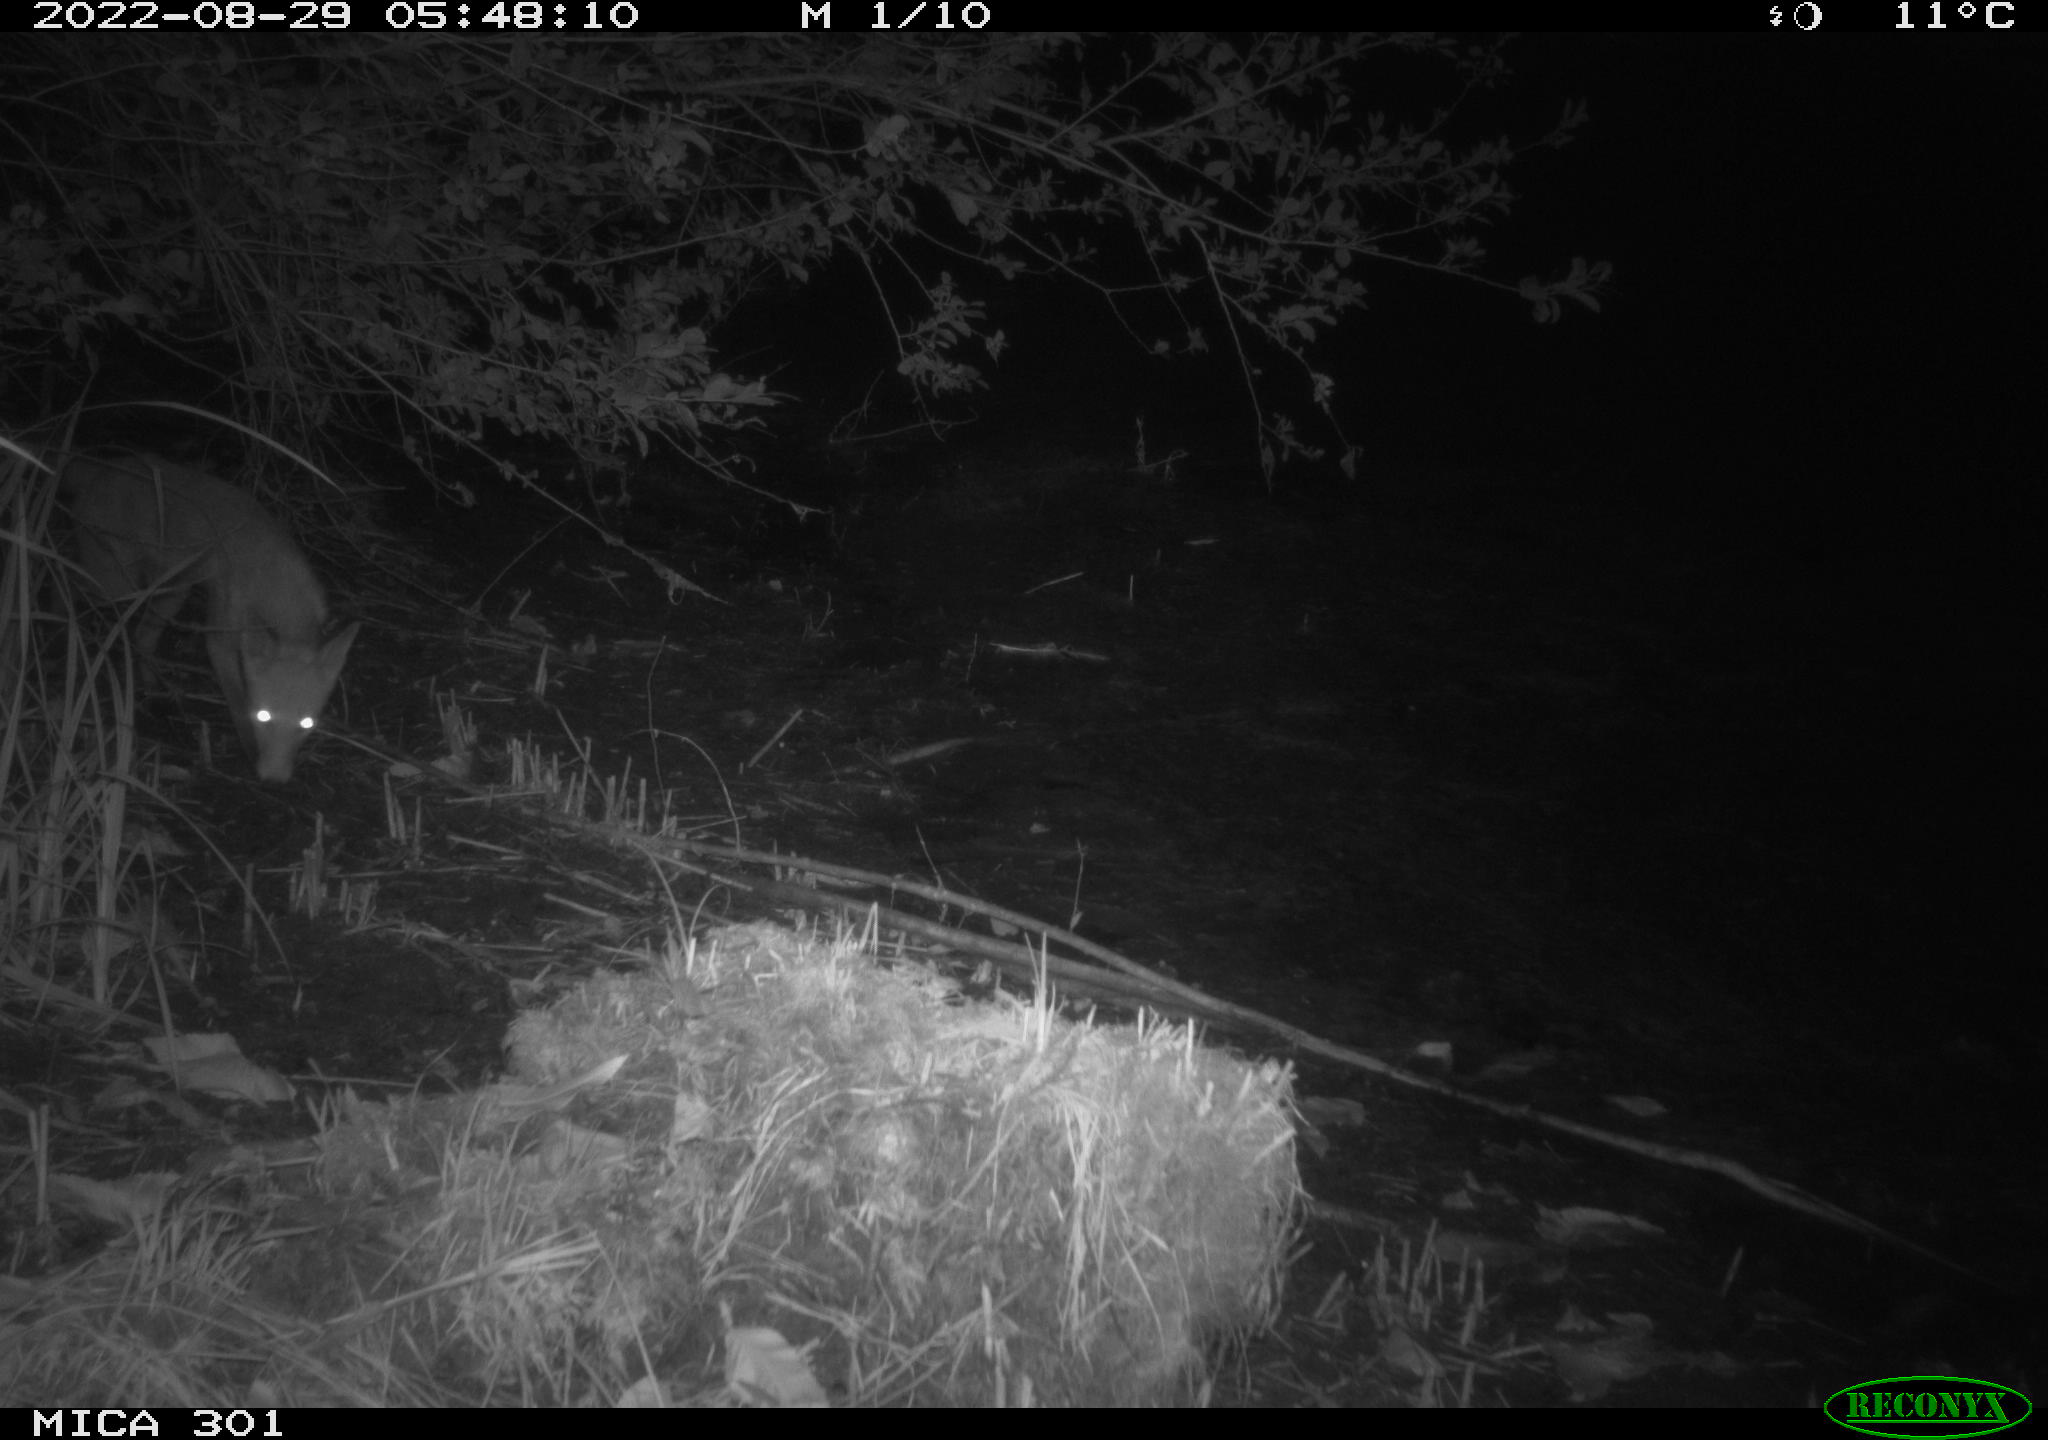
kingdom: Animalia
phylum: Chordata
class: Mammalia
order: Carnivora
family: Canidae
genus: Vulpes
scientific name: Vulpes vulpes
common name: Red fox
